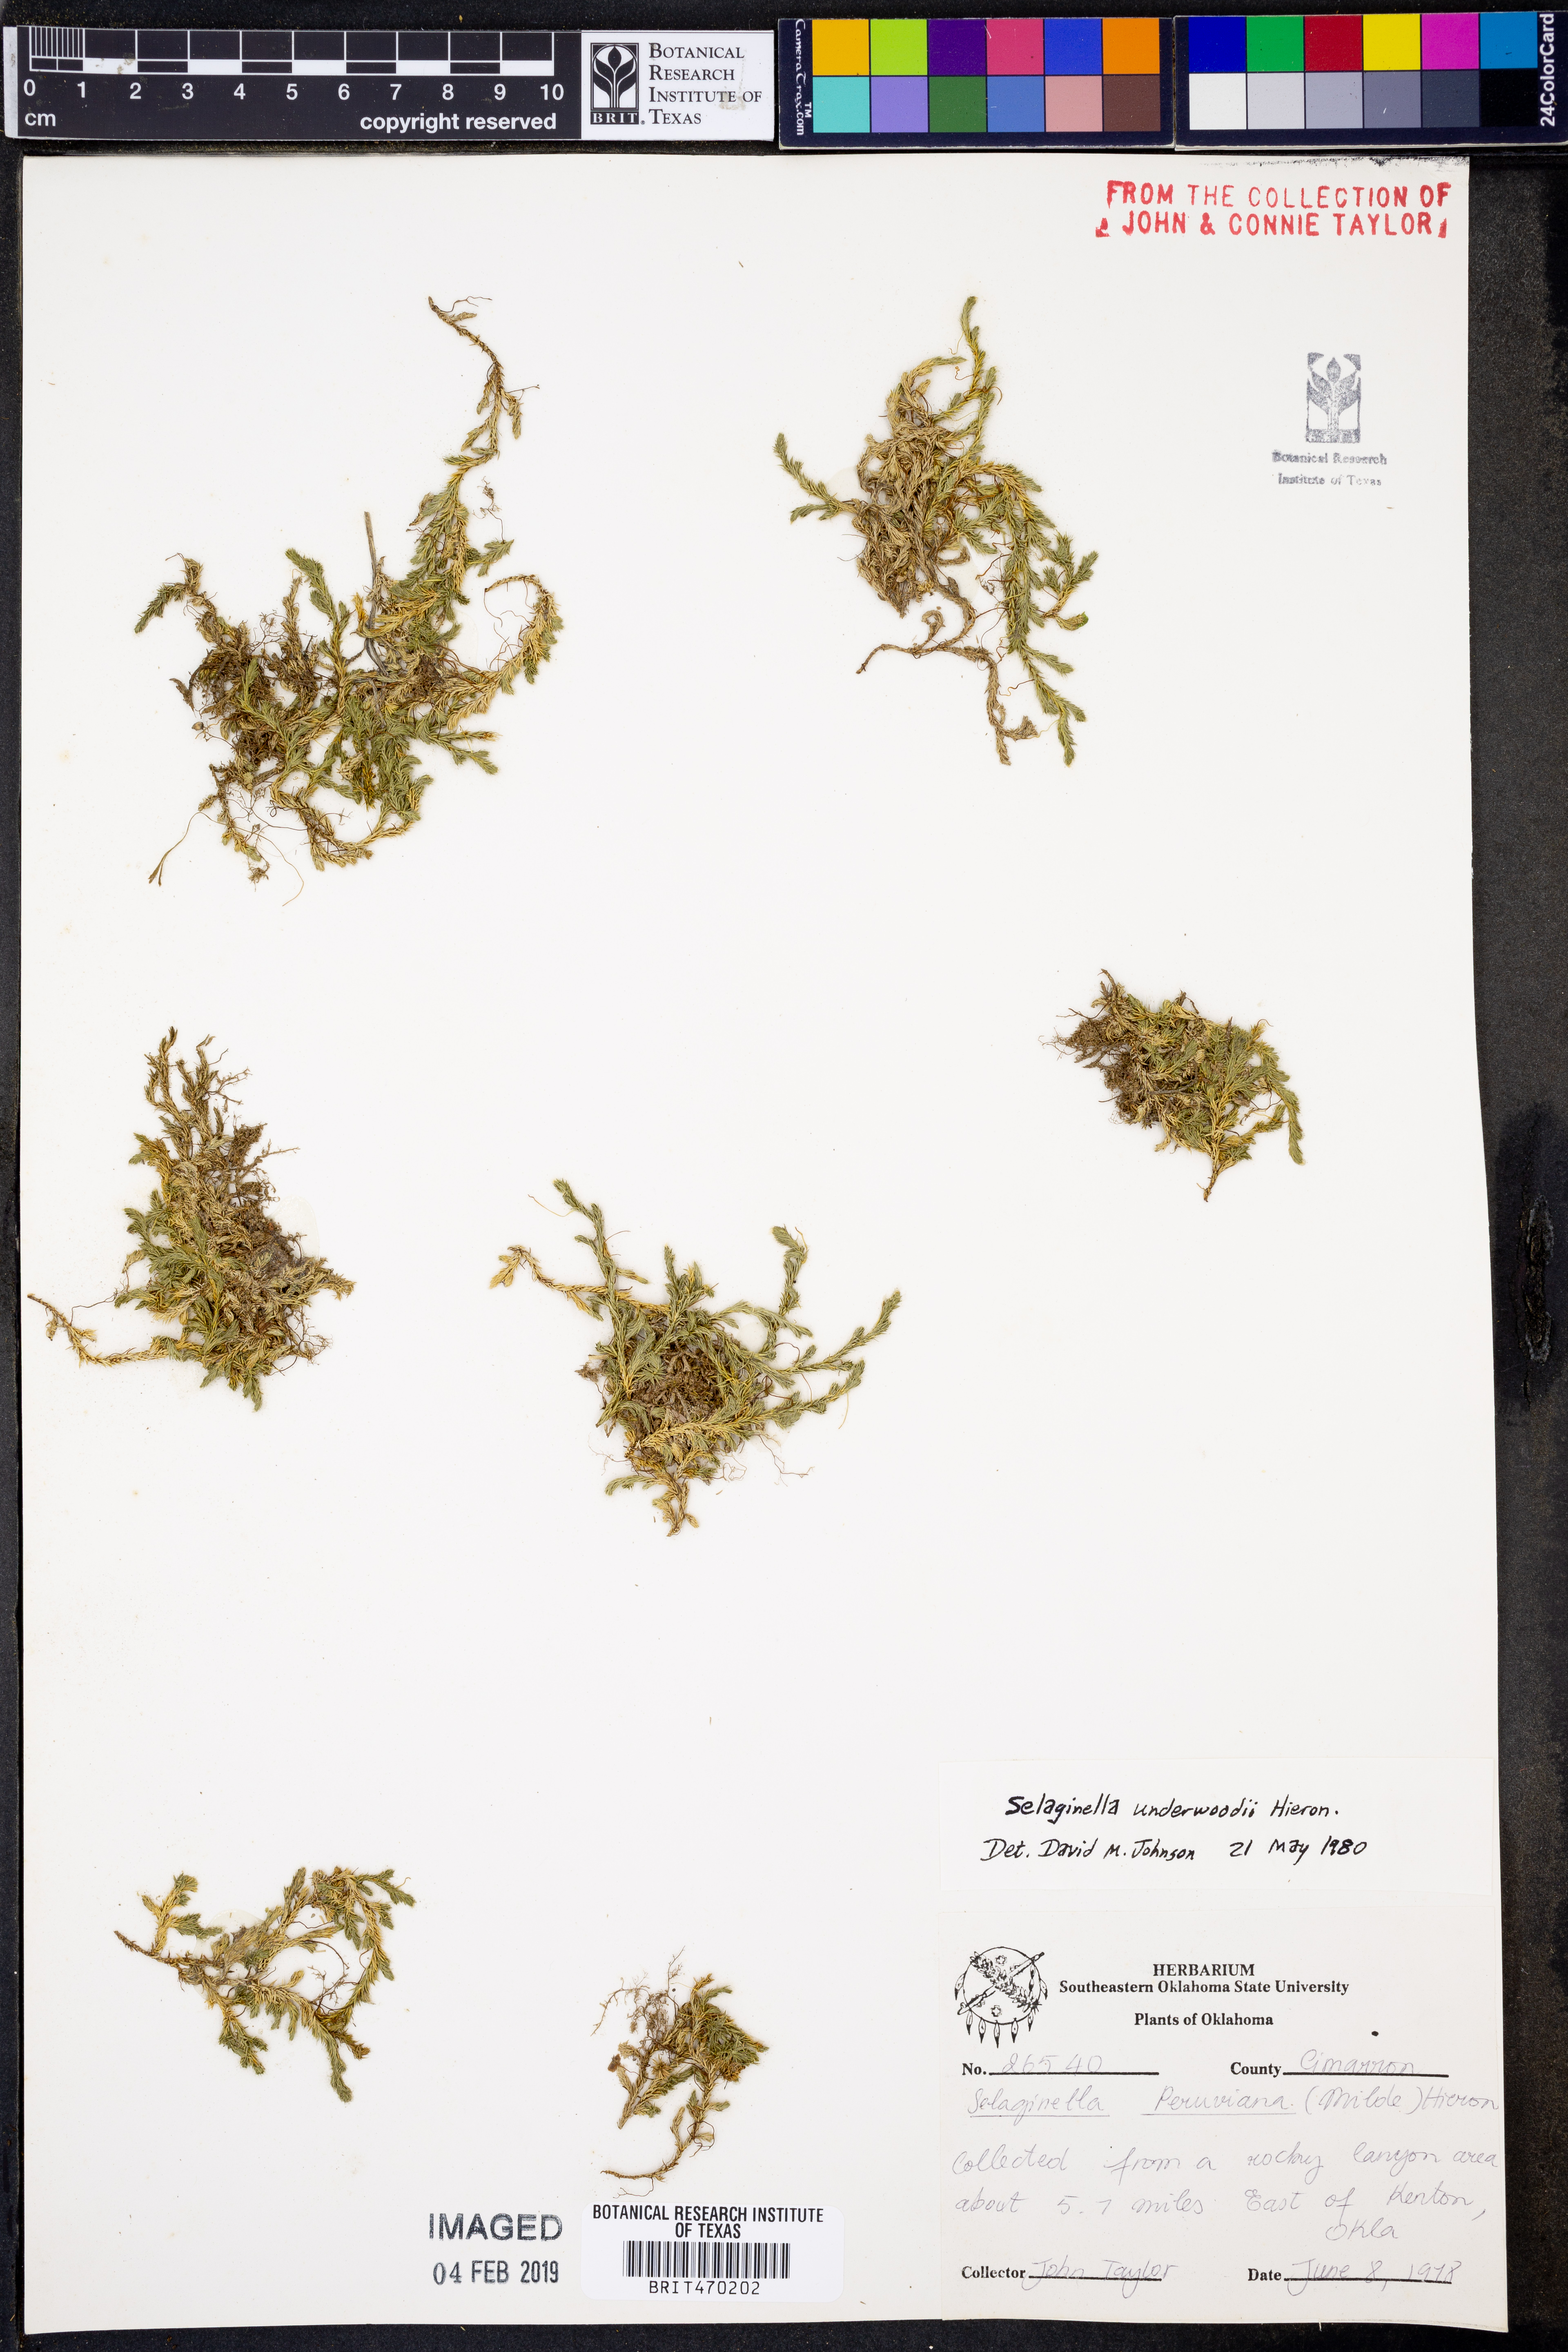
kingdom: Plantae
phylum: Tracheophyta
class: Lycopodiopsida
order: Selaginellales
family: Selaginellaceae
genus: Selaginella
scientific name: Selaginella underwoodii
